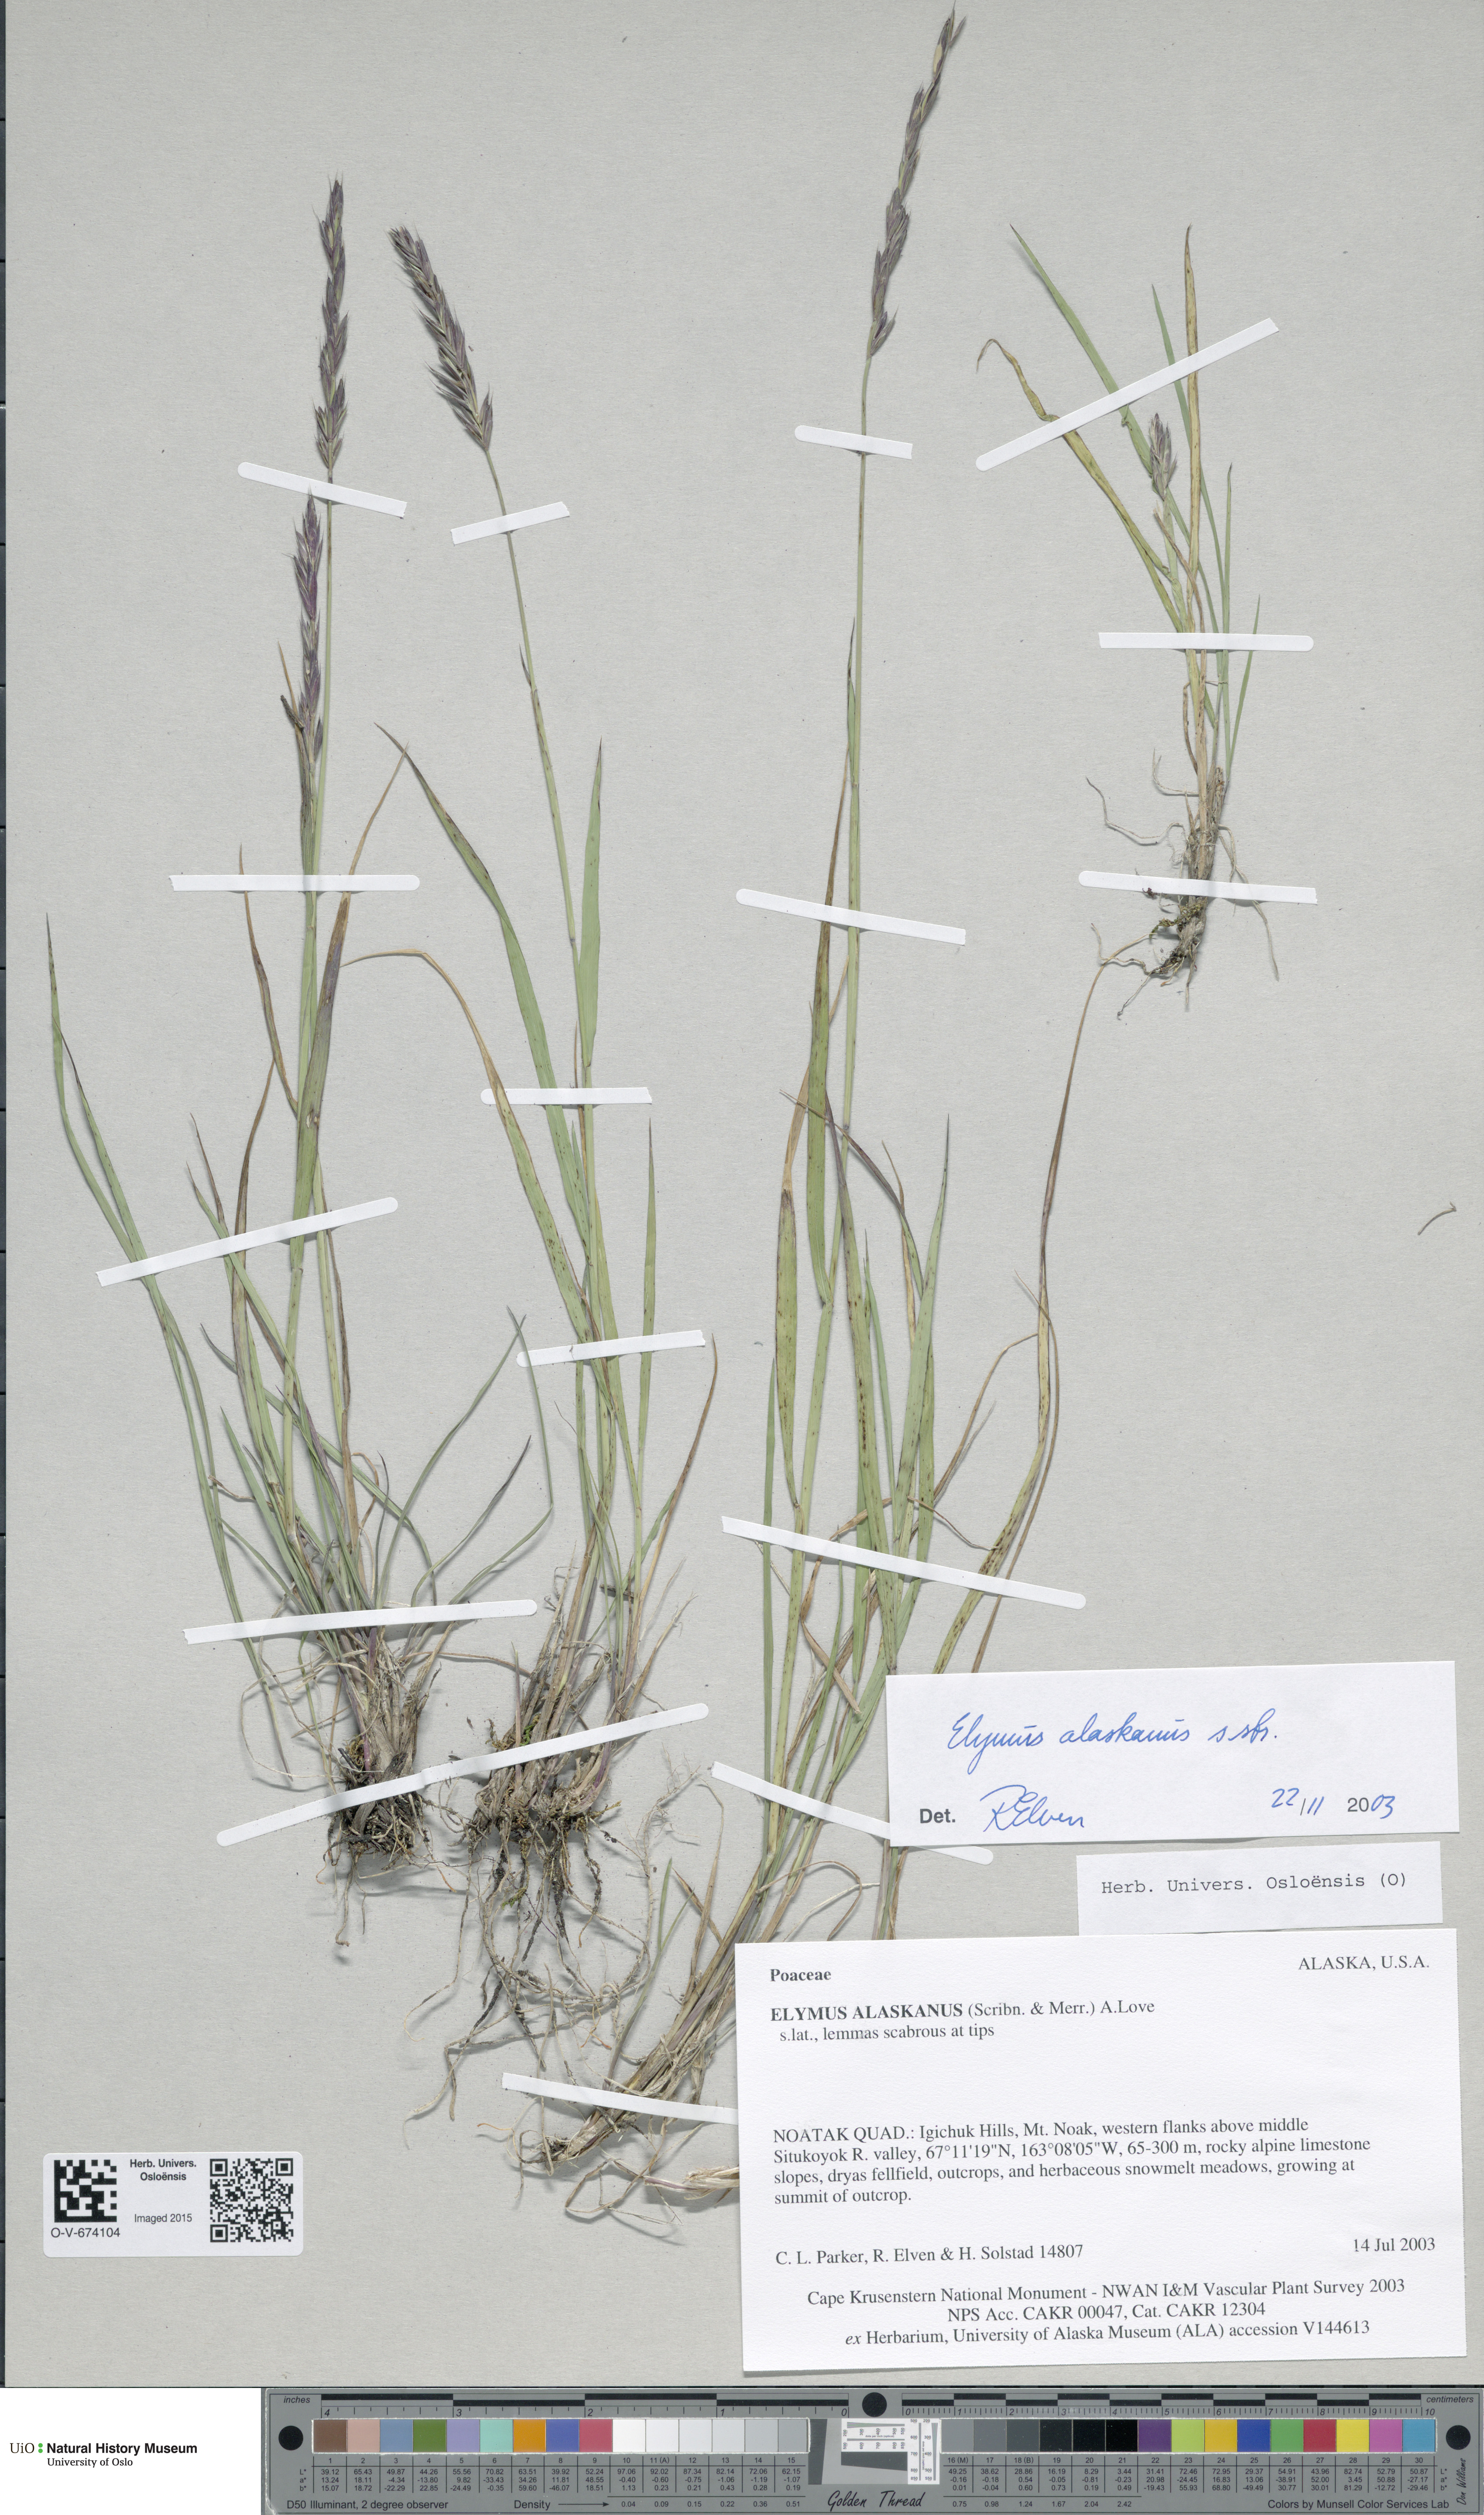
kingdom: Plantae
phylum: Tracheophyta
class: Liliopsida
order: Poales
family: Poaceae
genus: Elymus
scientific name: Elymus alaskanus
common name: Alaska wheatgrass
